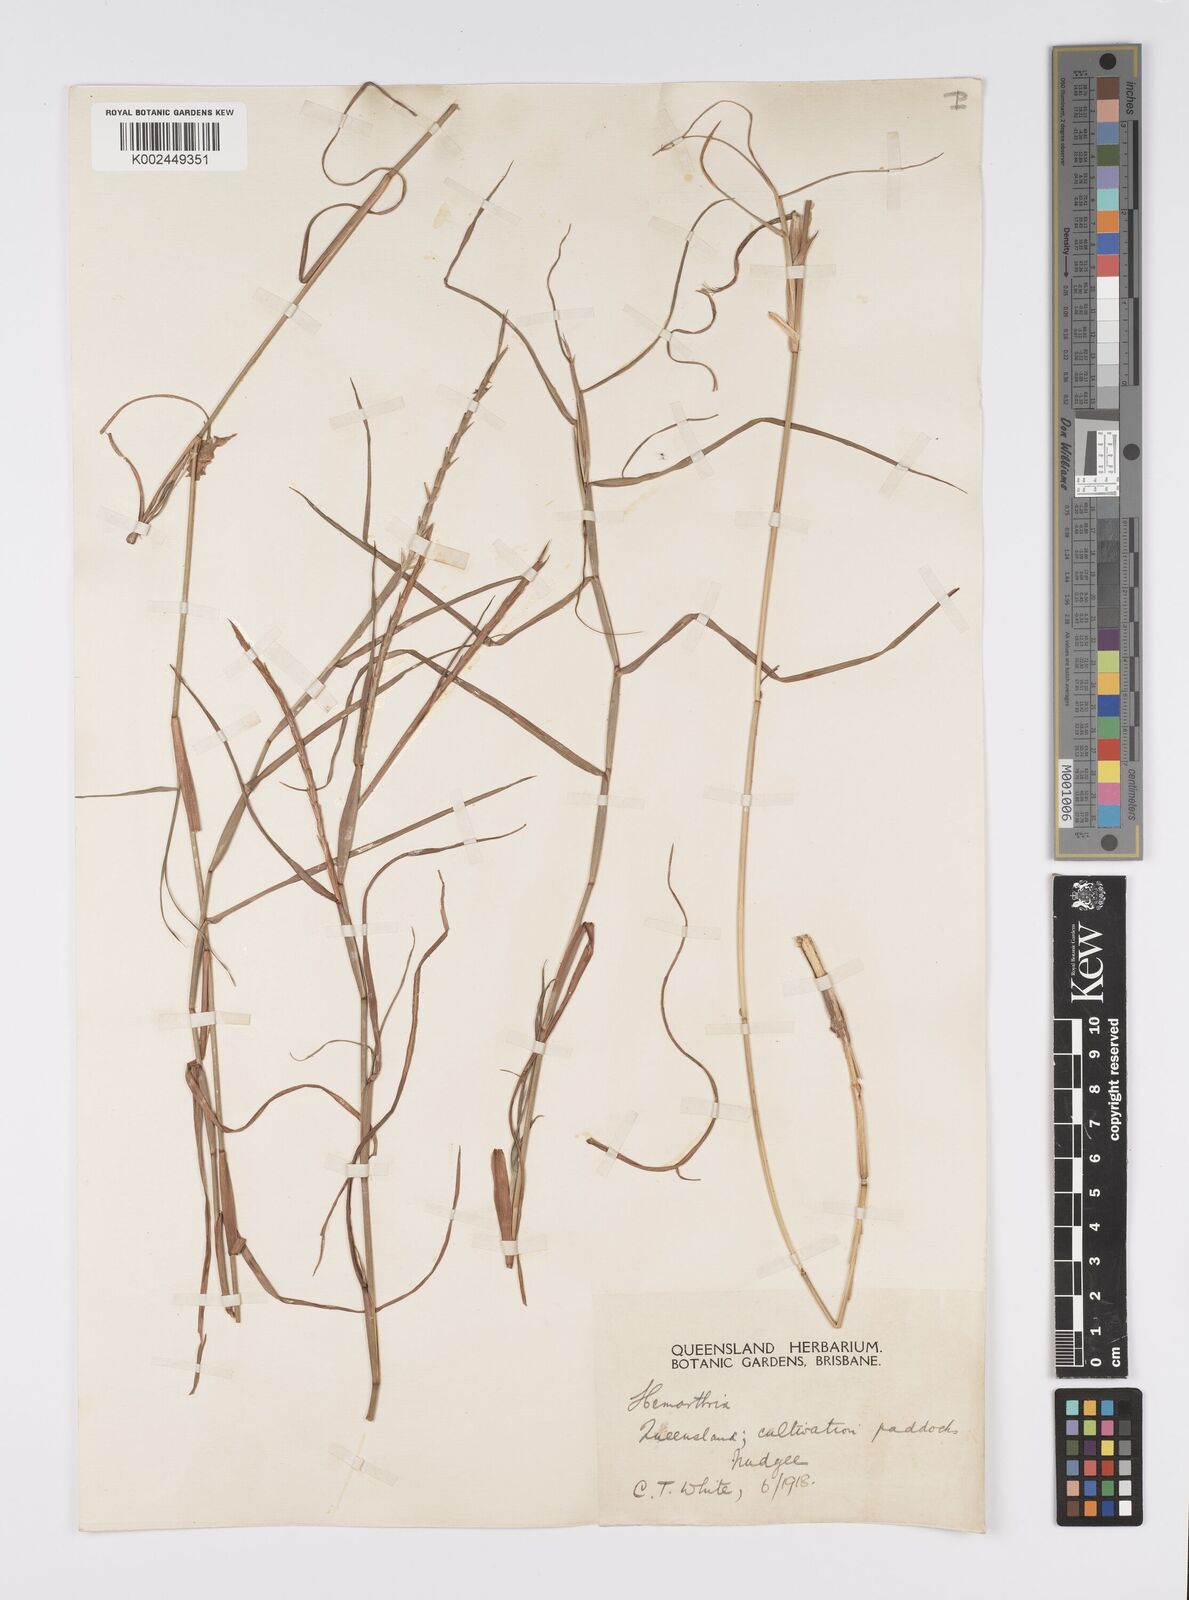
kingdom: Plantae
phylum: Tracheophyta
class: Liliopsida
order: Poales
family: Poaceae
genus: Hemarthria
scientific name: Hemarthria uncinata
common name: Matgrass
